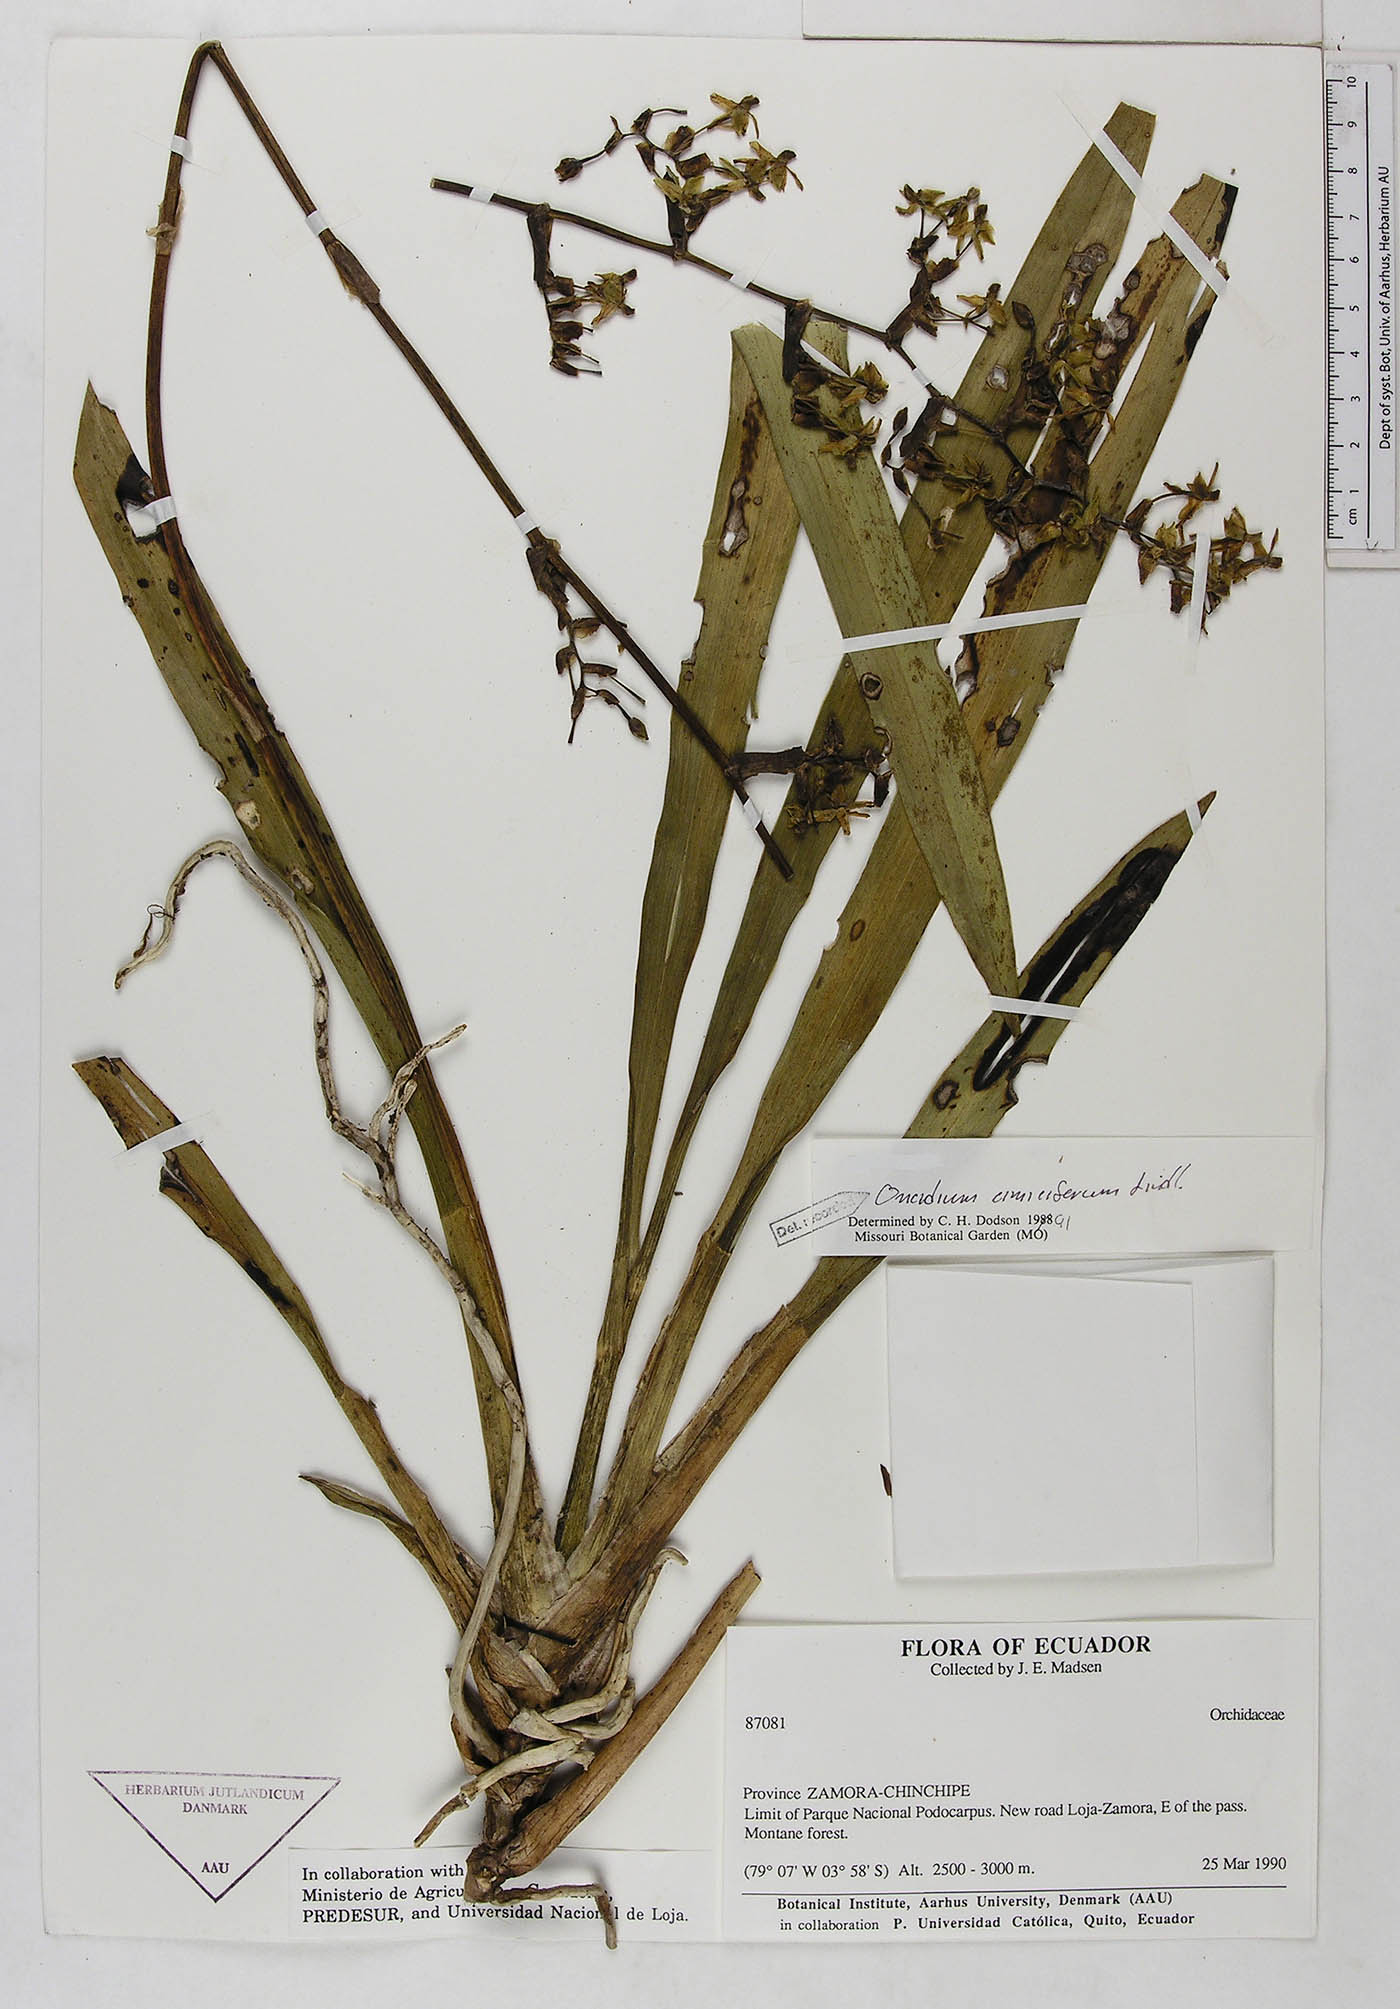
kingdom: Plantae
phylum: Tracheophyta
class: Liliopsida
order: Asparagales
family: Orchidaceae
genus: Oncidium
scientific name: Oncidium cimiciferum
